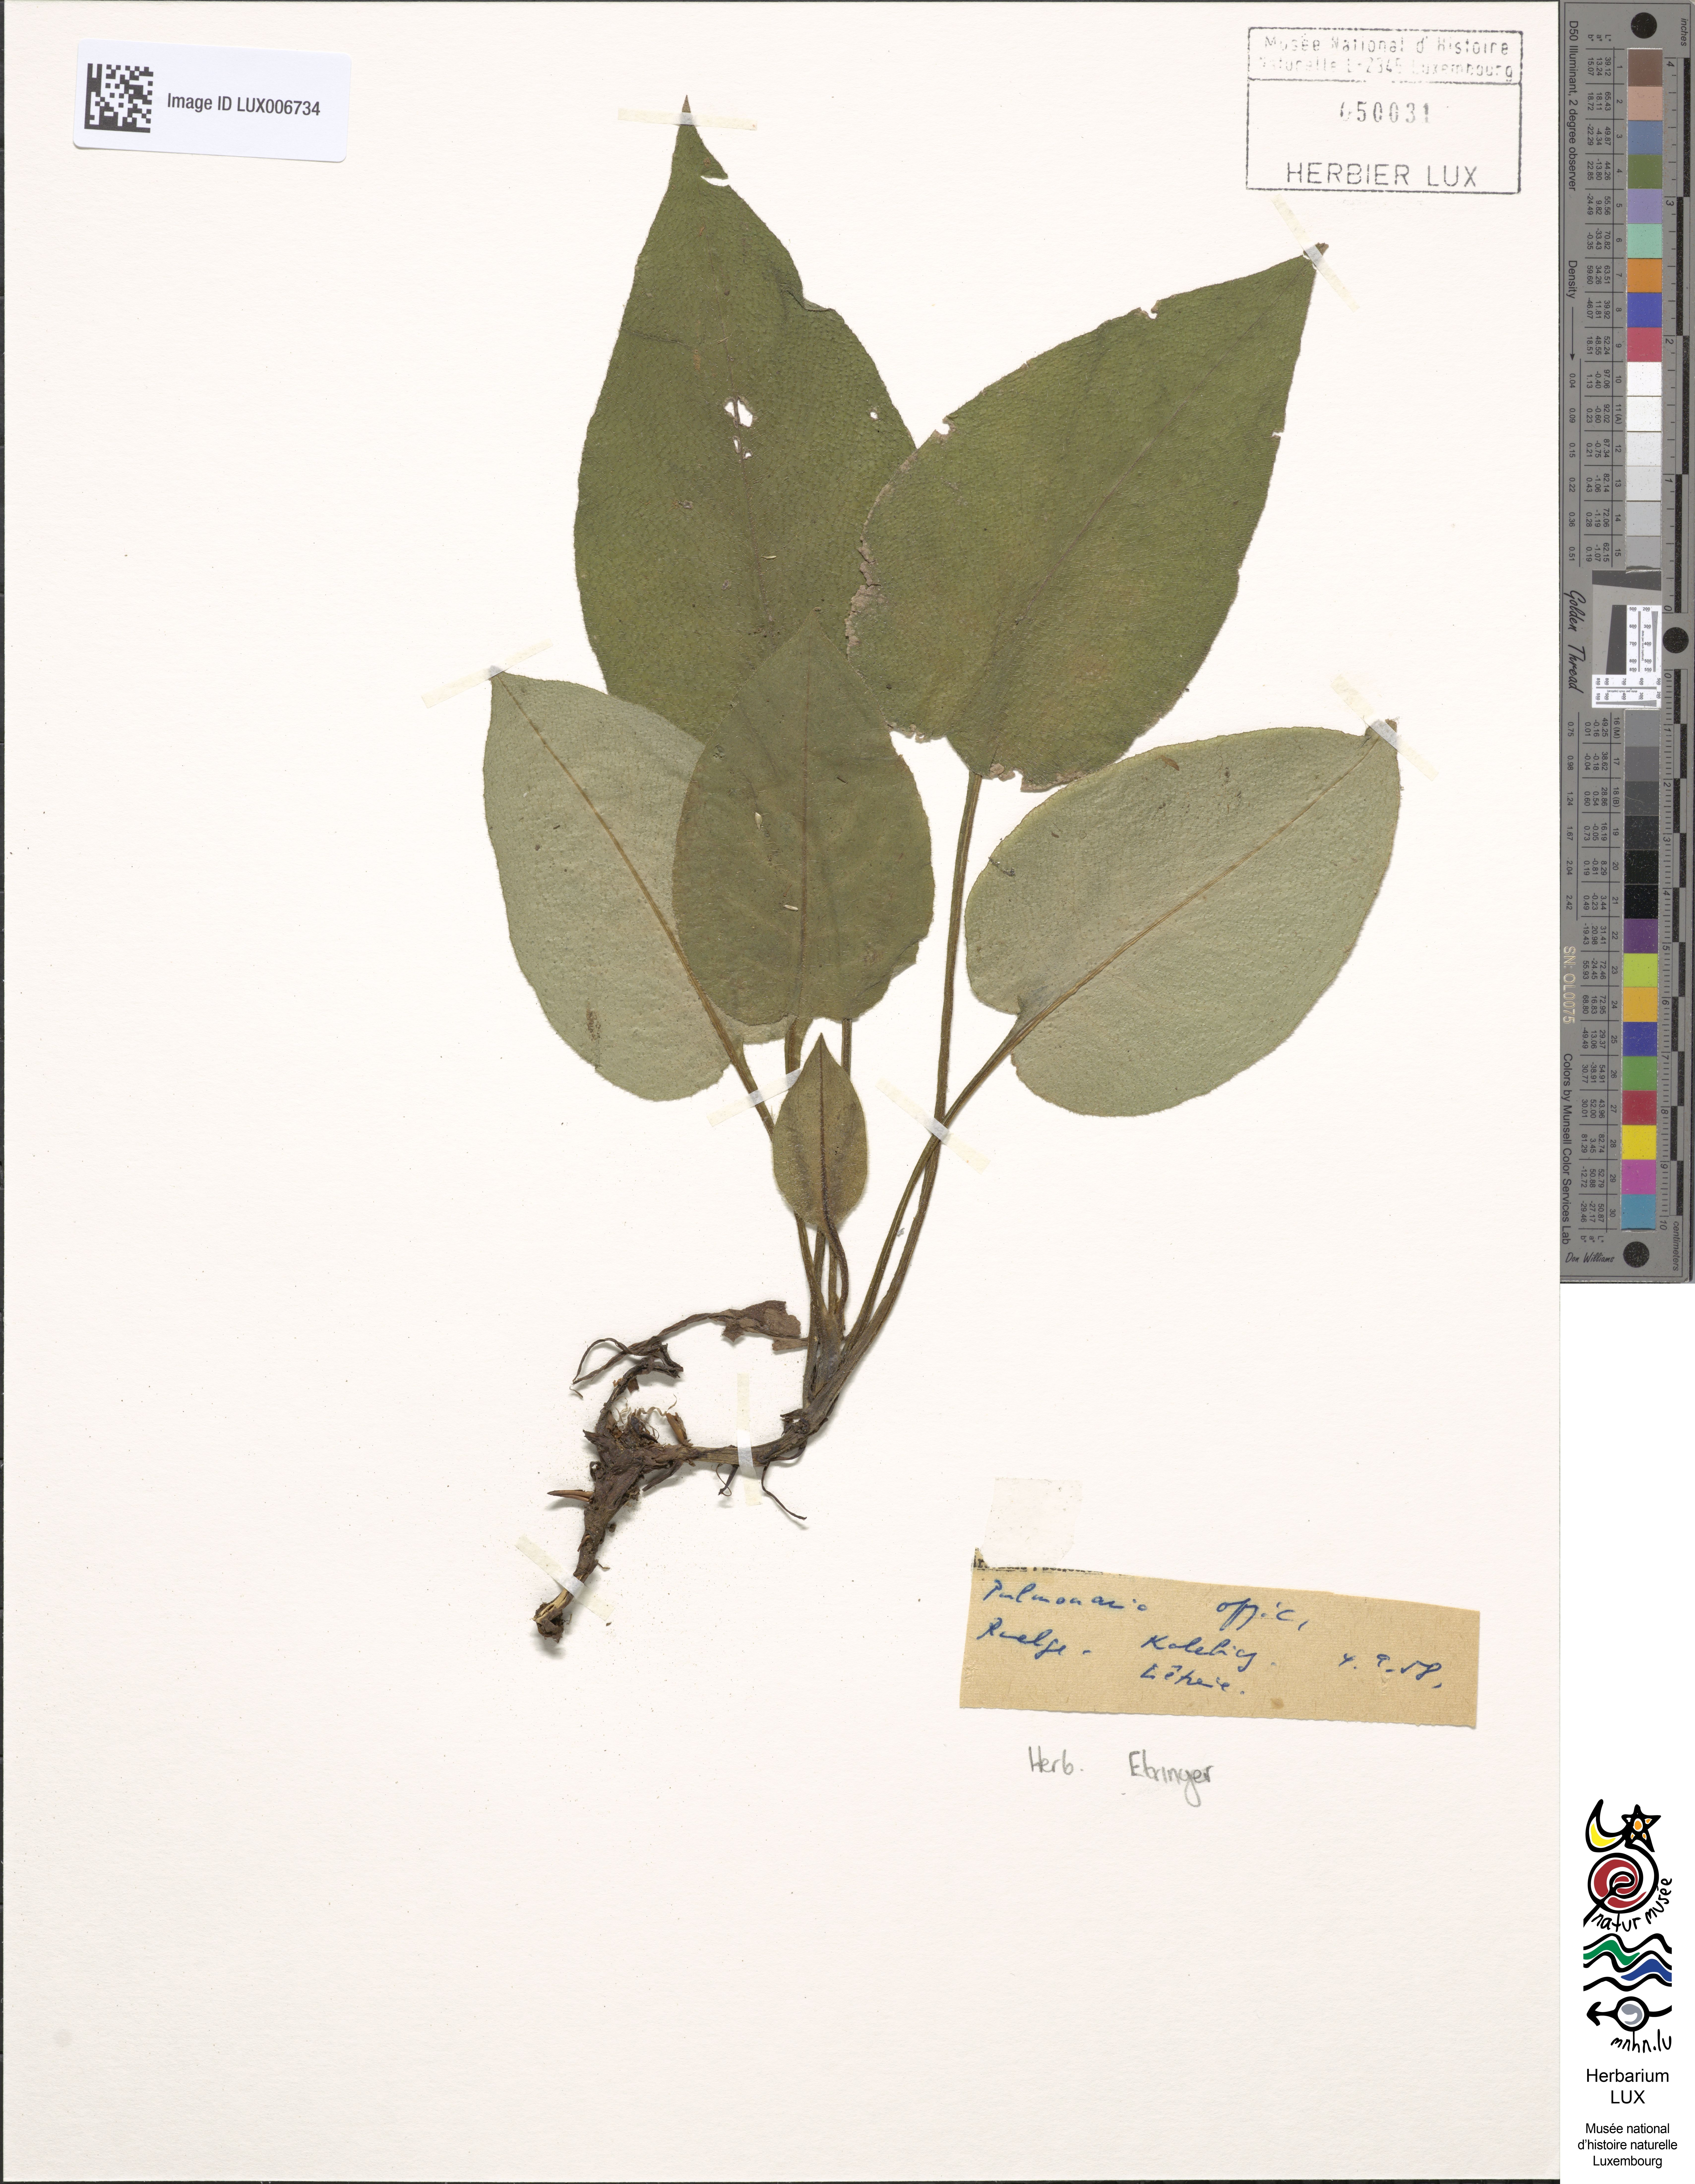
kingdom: Plantae
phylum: Tracheophyta
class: Magnoliopsida
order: Boraginales
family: Boraginaceae
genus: Pulmonaria
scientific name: Pulmonaria officinalis
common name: Lungwort
